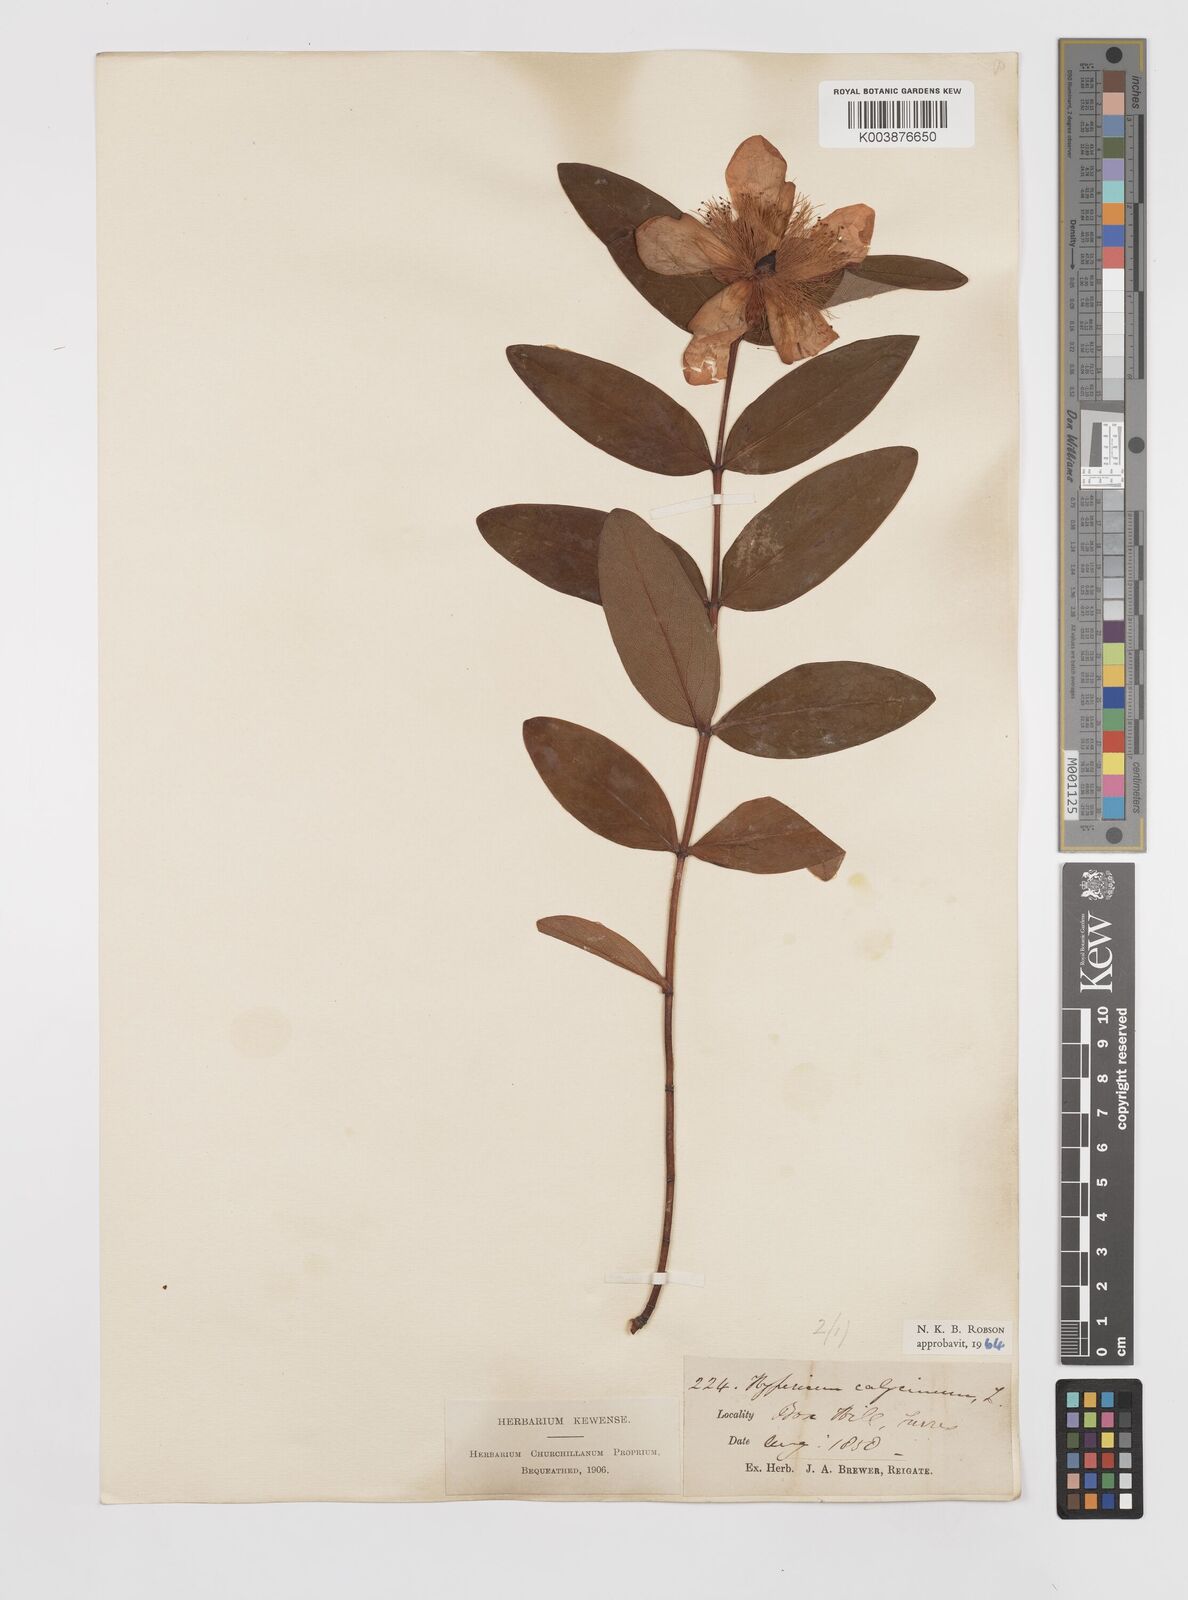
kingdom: Plantae
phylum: Tracheophyta
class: Magnoliopsida
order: Malpighiales
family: Hypericaceae
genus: Hypericum
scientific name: Hypericum calycinum
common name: Rose-of-sharon
